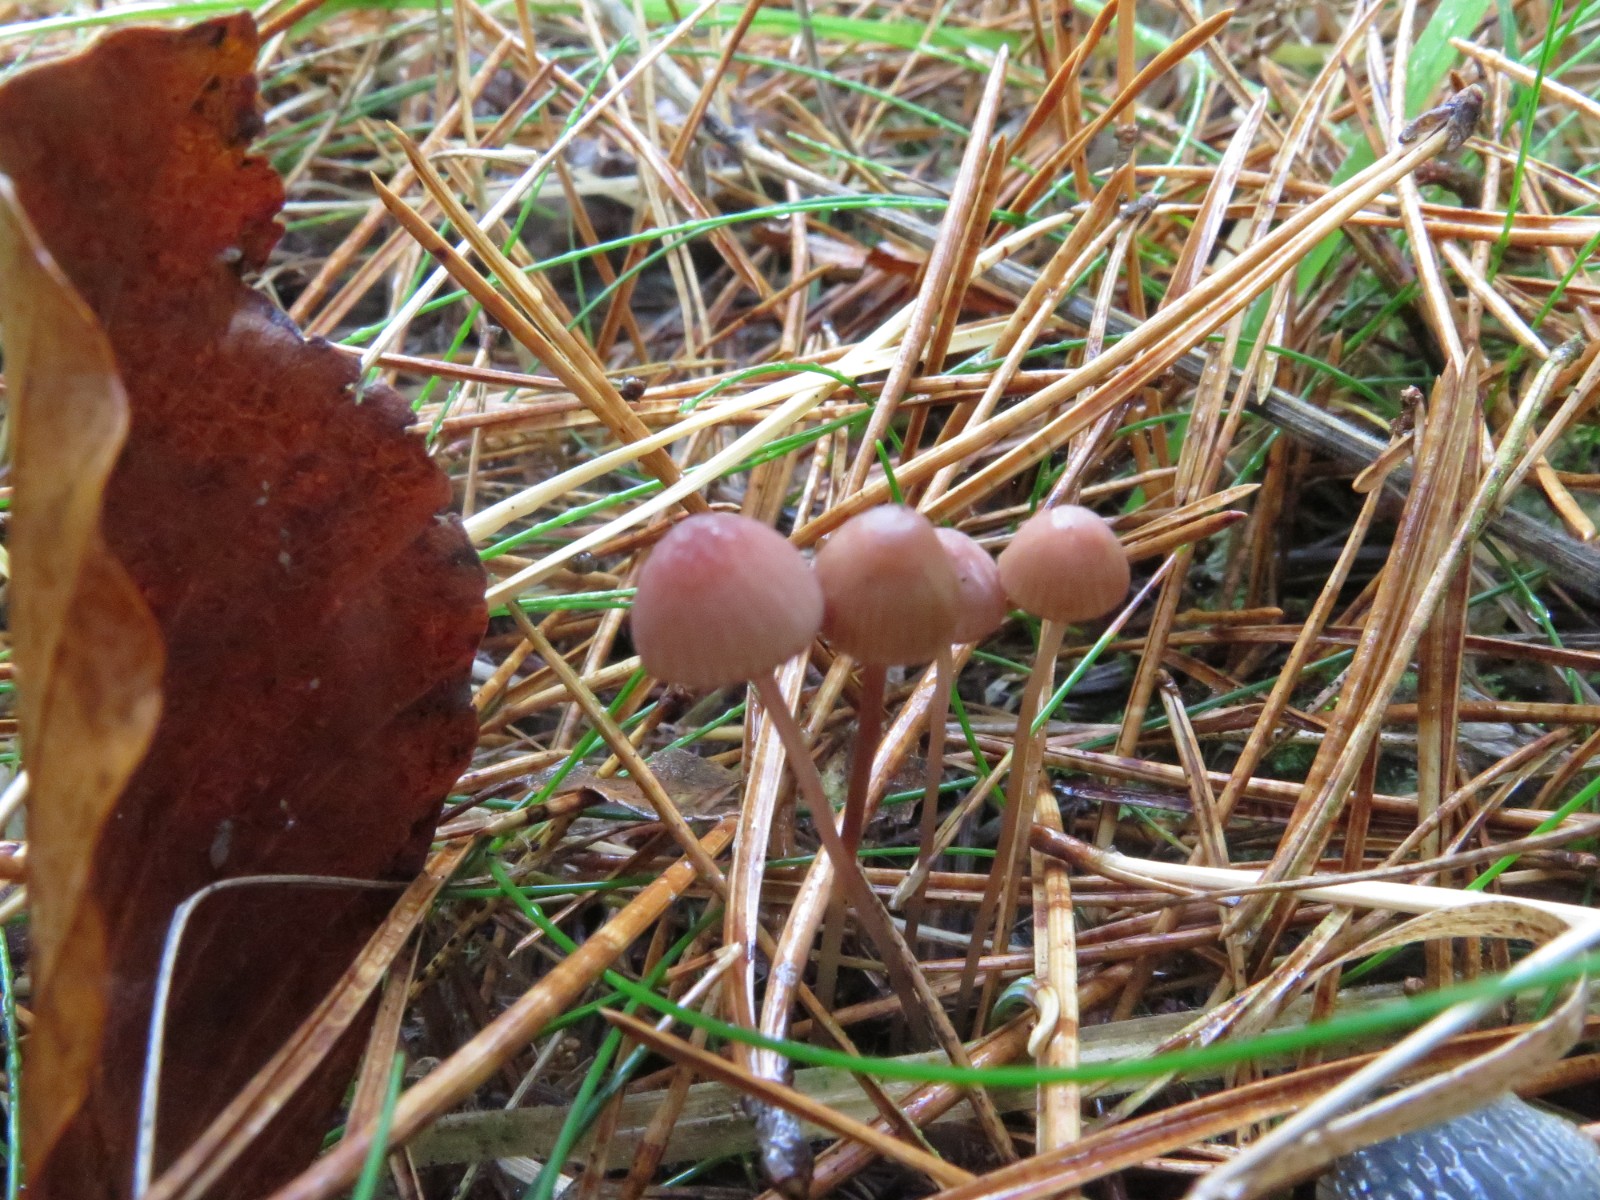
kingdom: Fungi
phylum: Basidiomycota
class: Agaricomycetes
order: Agaricales
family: Mycenaceae
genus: Mycena
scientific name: Mycena sanguinolenta
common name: rødmælket huesvamp
